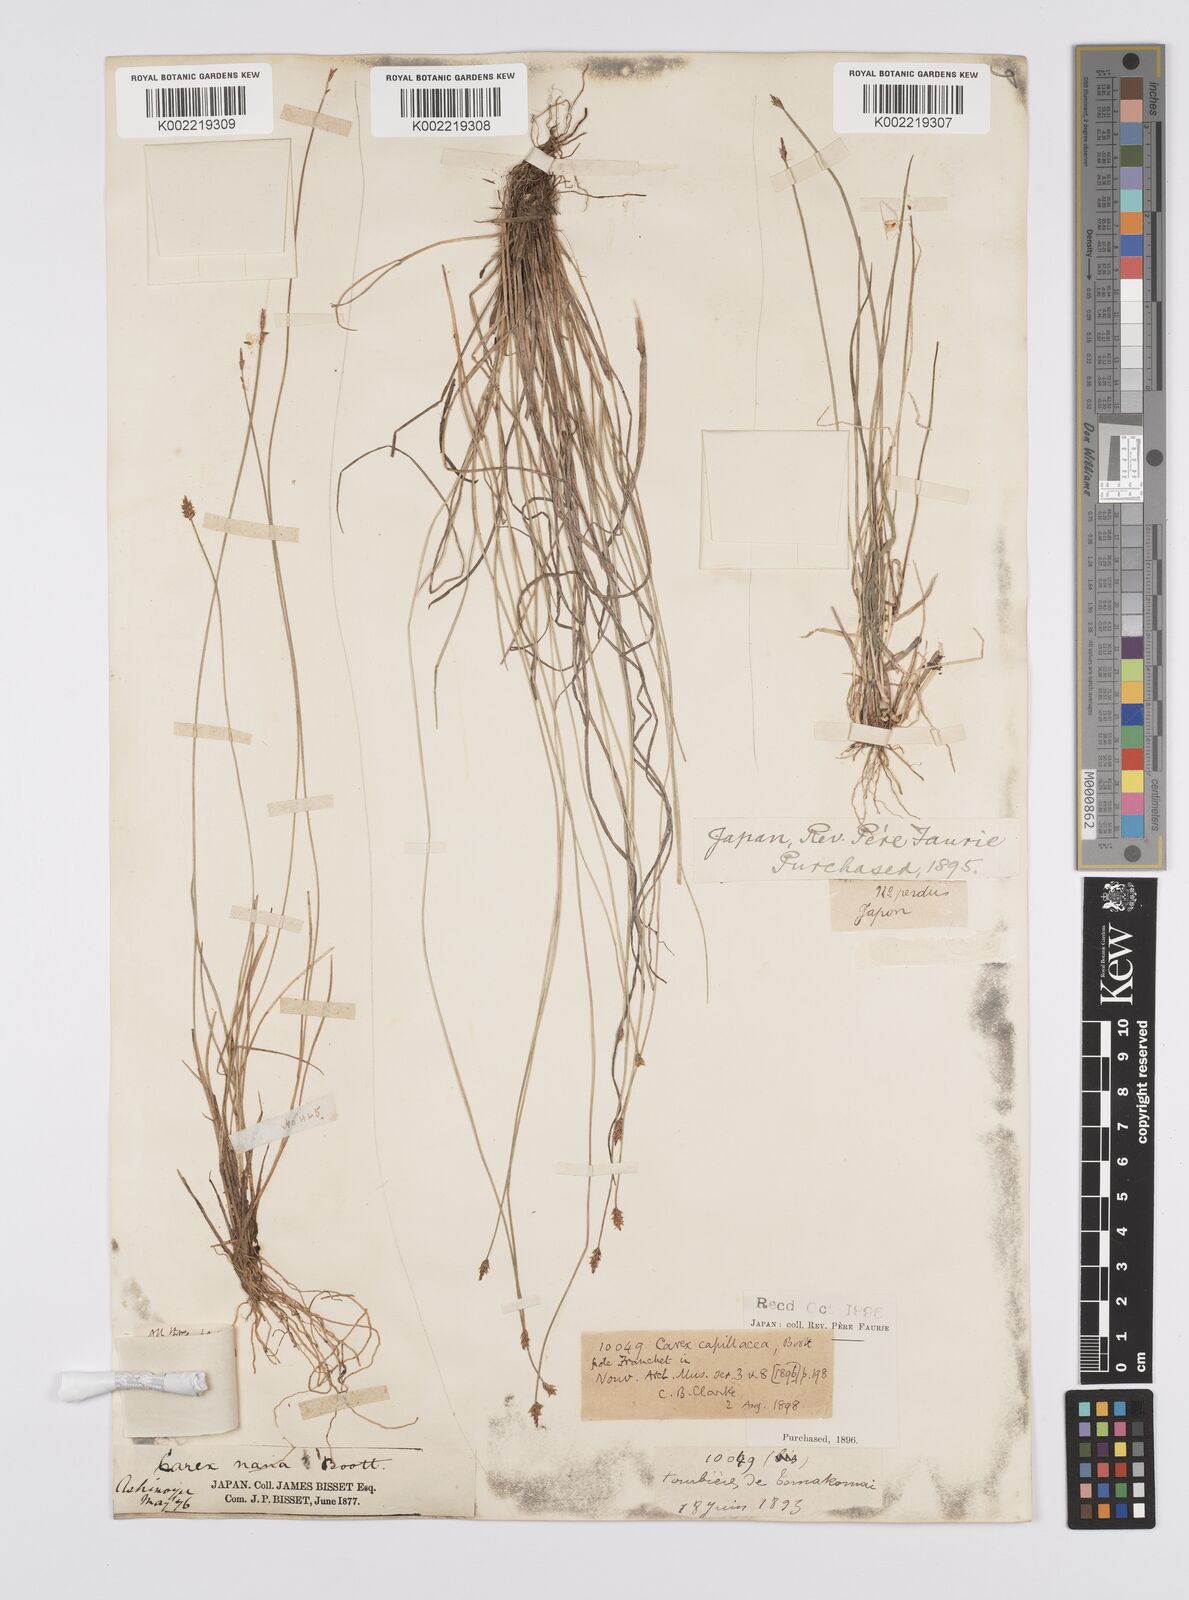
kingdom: Plantae
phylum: Tracheophyta
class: Liliopsida
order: Poales
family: Cyperaceae
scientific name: Cyperaceae
